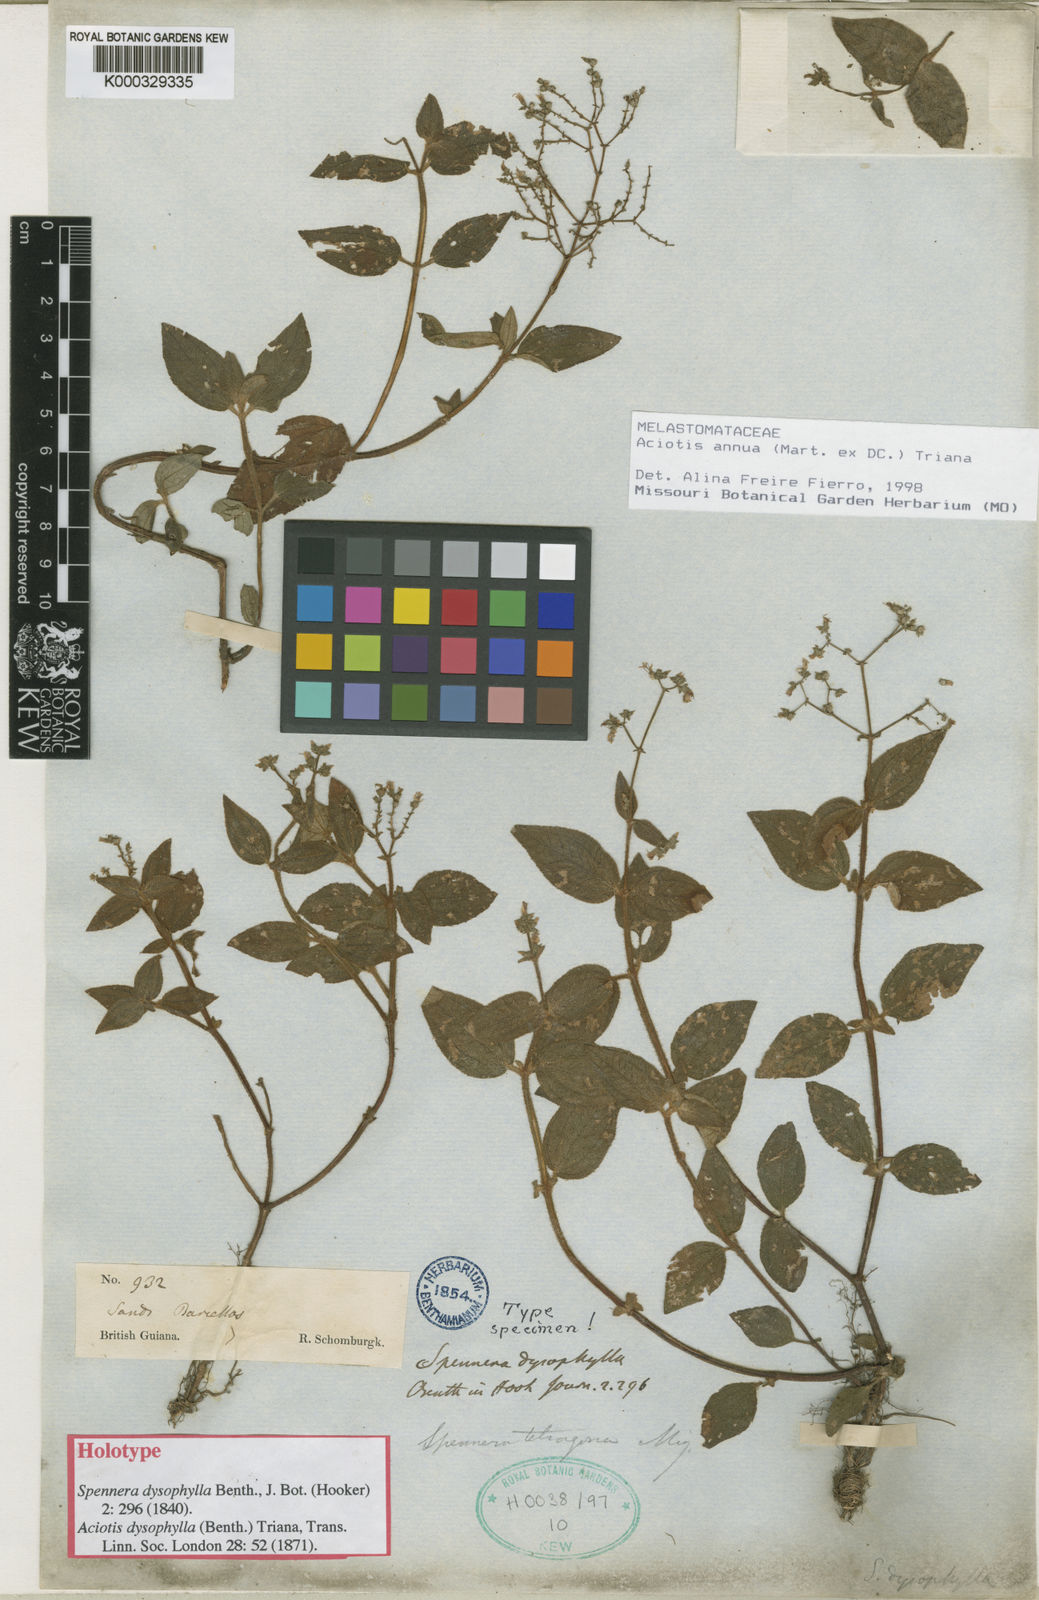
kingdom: Plantae
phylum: Tracheophyta
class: Magnoliopsida
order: Myrtales
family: Melastomataceae
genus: Aciotis
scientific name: Aciotis annua
